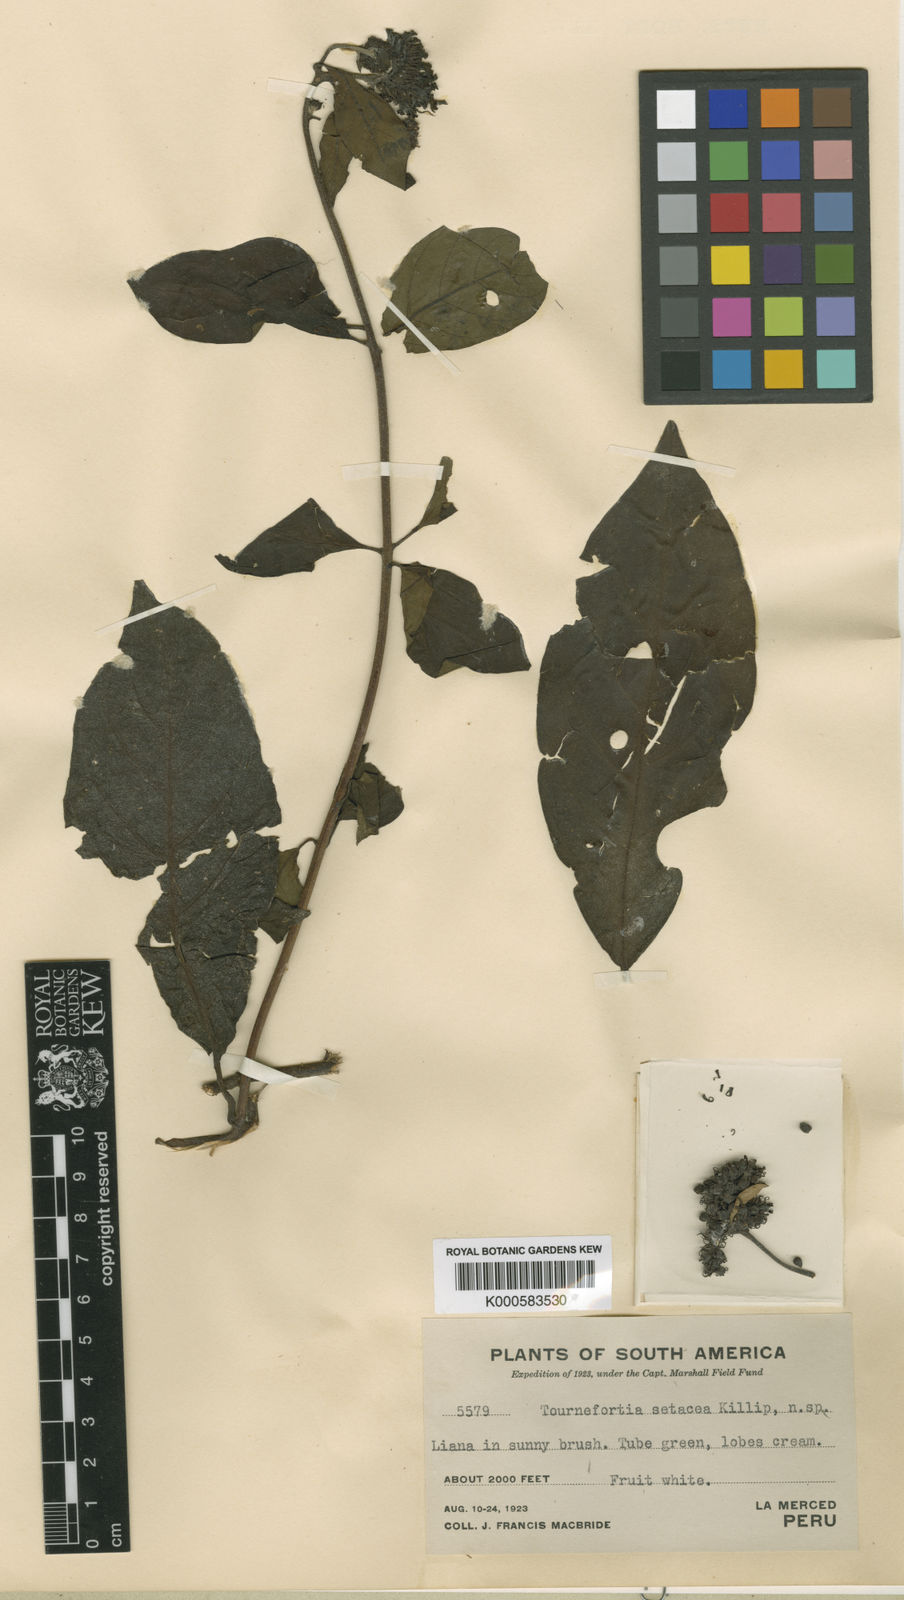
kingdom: Plantae
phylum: Tracheophyta
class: Magnoliopsida
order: Boraginales
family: Heliotropiaceae
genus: Tournefortia
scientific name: Tournefortia setacea
